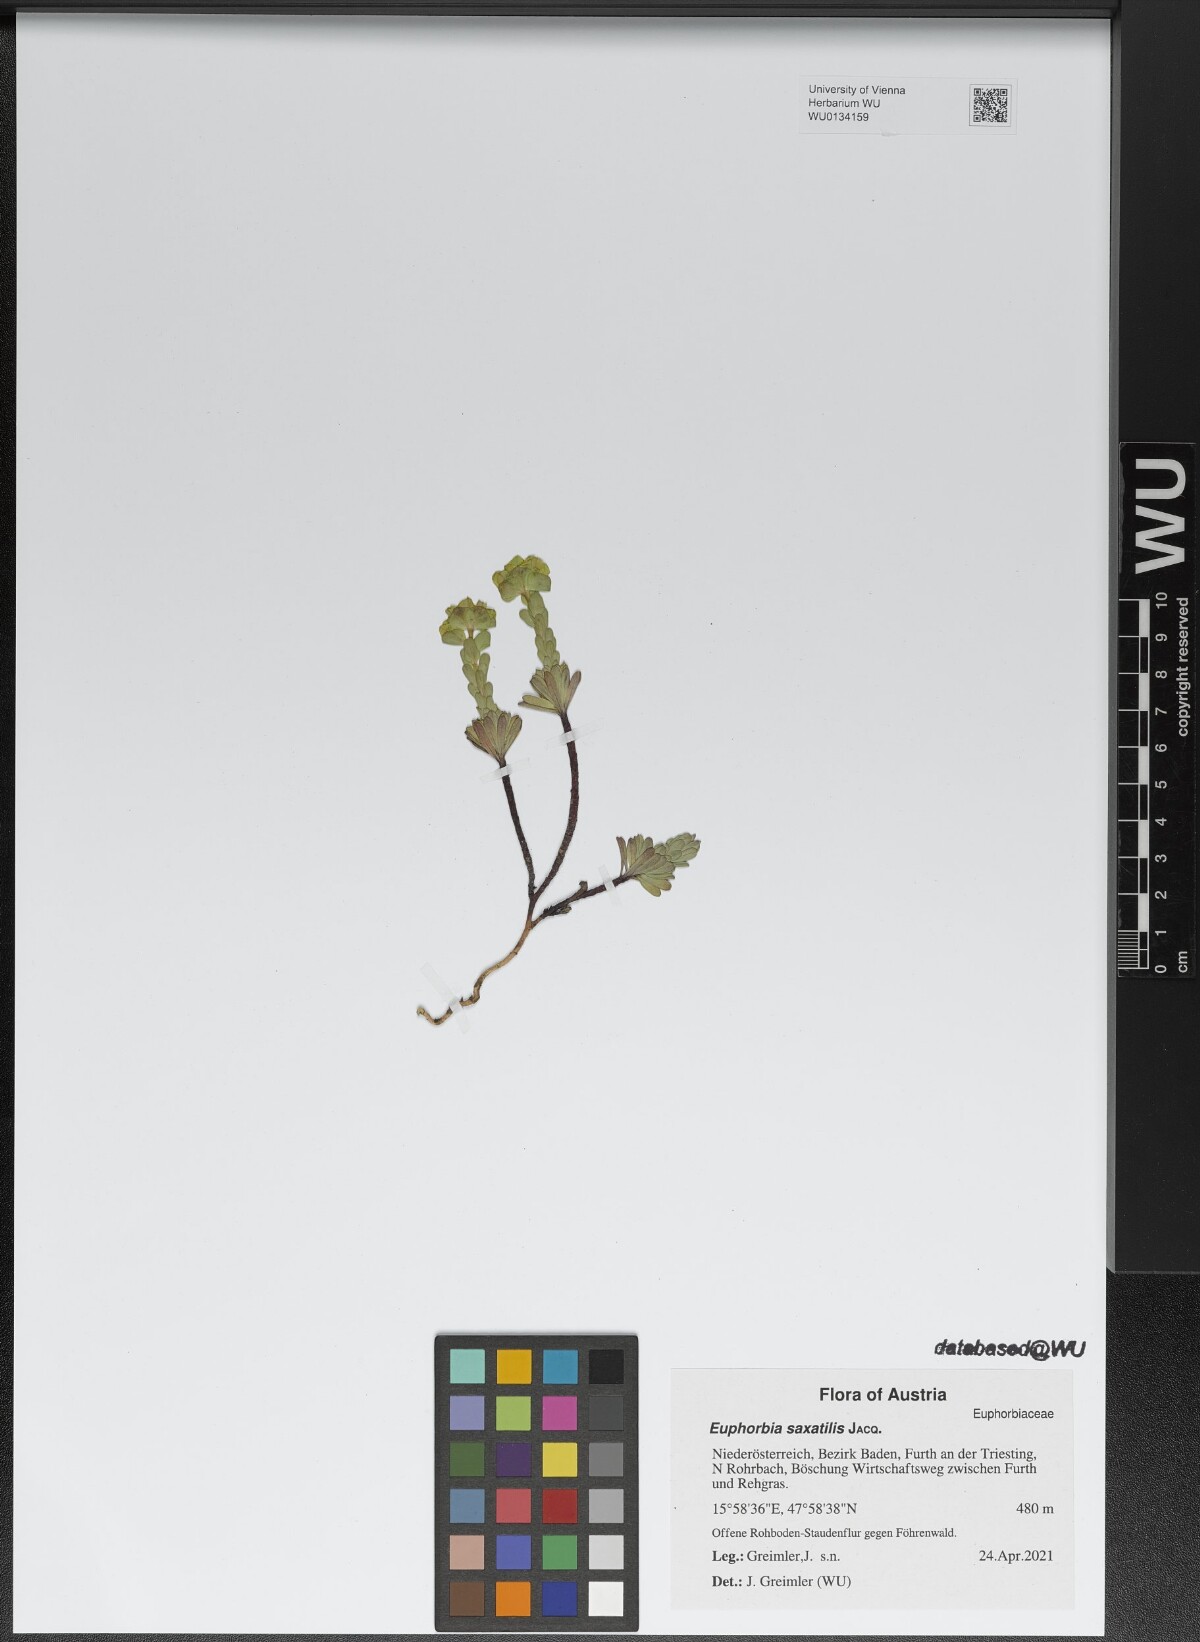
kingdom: Plantae
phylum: Tracheophyta
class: Magnoliopsida
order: Malpighiales
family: Euphorbiaceae
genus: Euphorbia
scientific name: Euphorbia saxatilis
